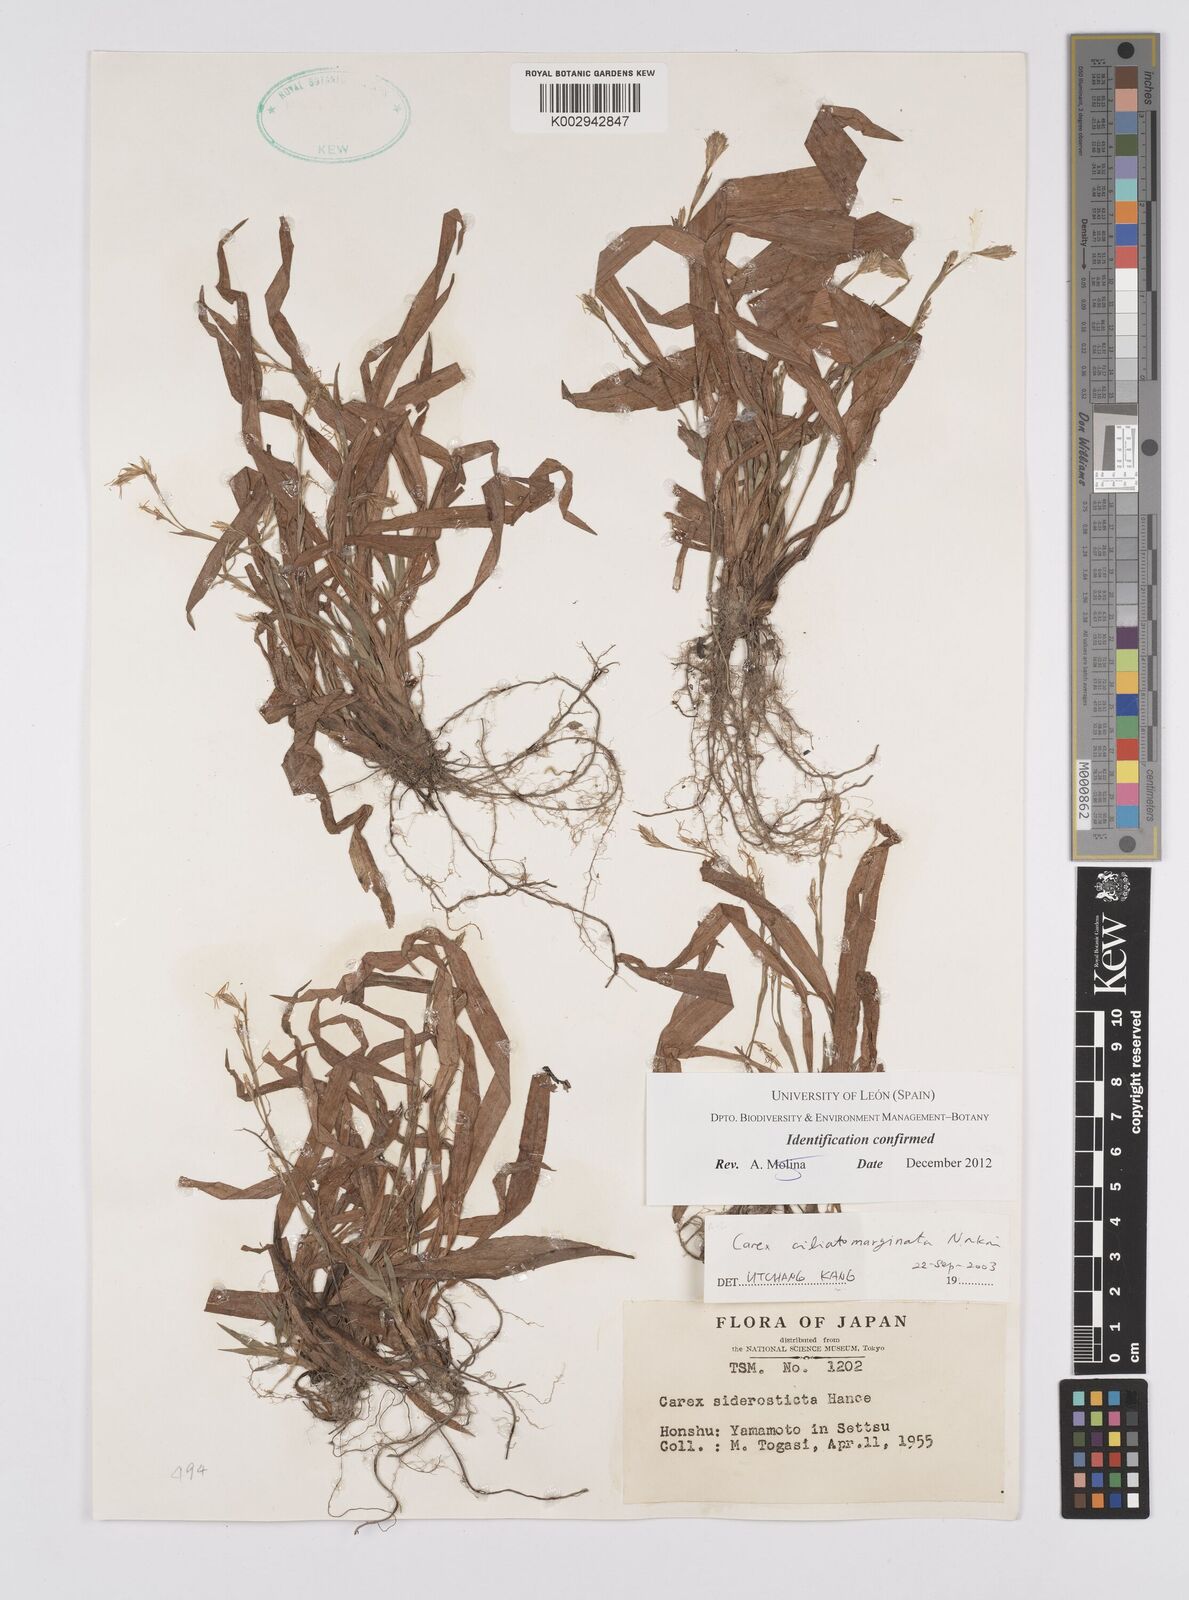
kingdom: Plantae
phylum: Tracheophyta
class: Liliopsida
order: Poales
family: Cyperaceae
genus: Carex
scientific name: Carex siderosticta
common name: Broadleaf sedge
